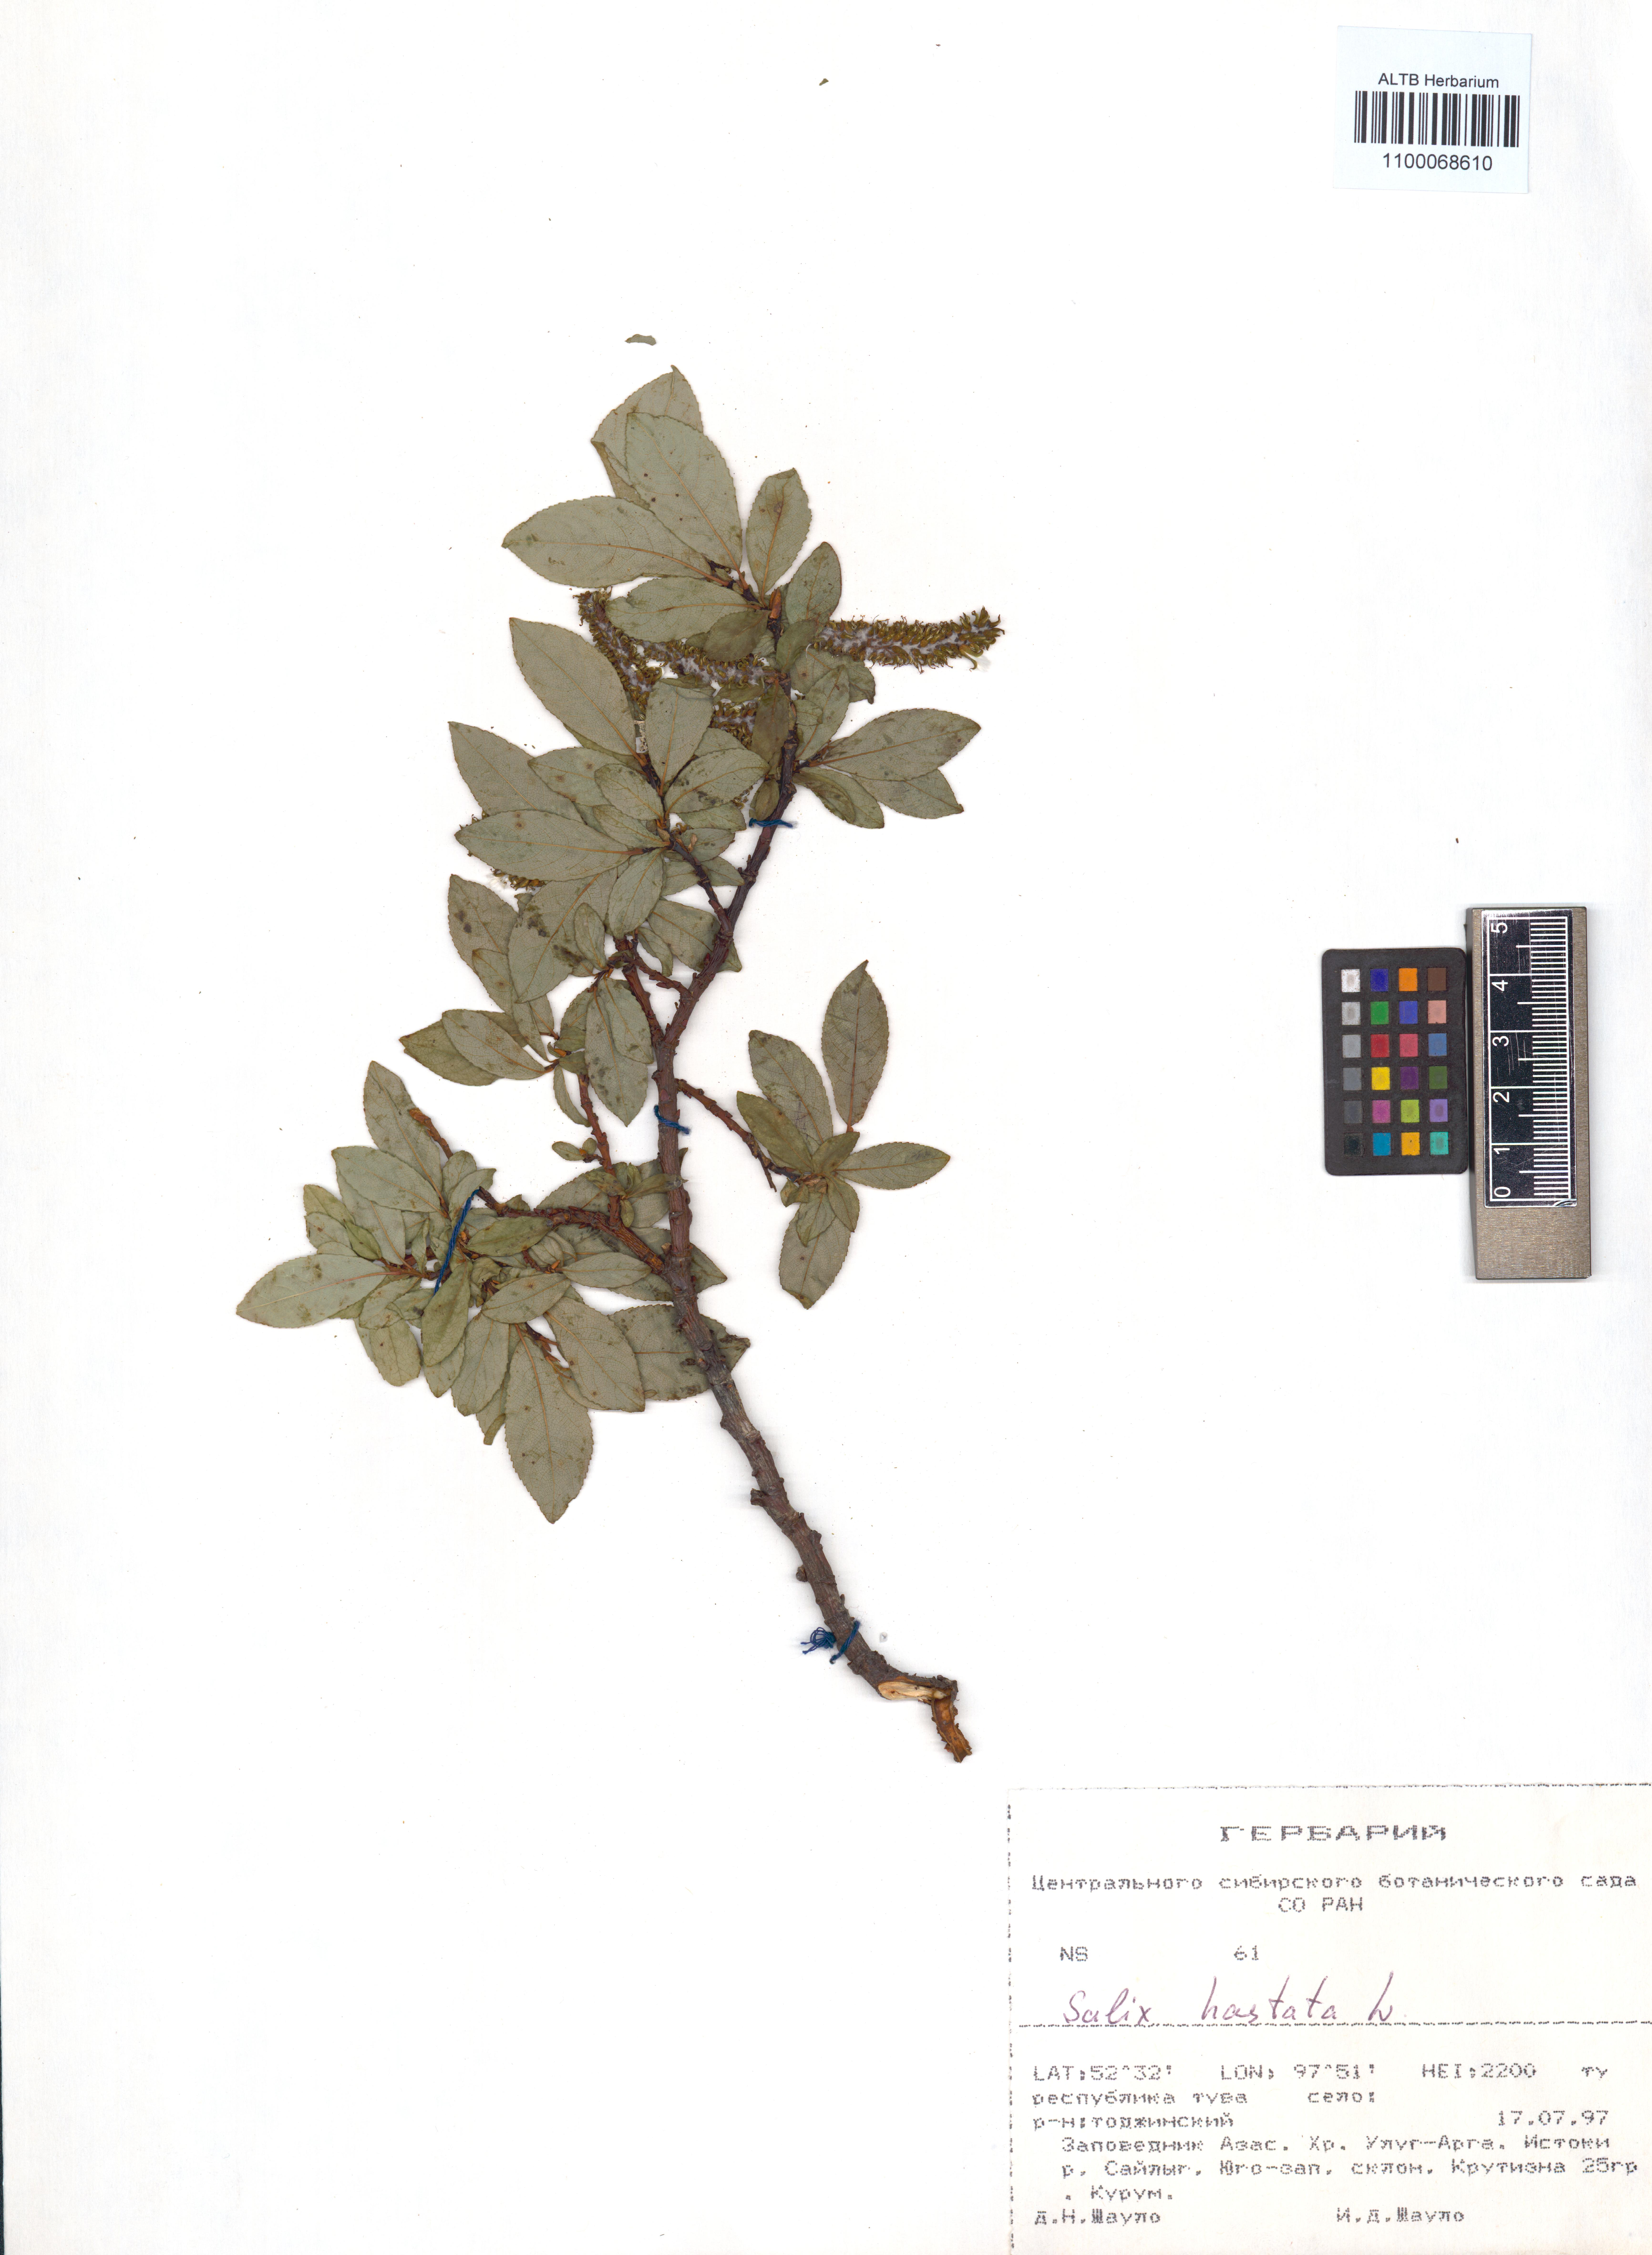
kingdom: Plantae
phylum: Tracheophyta
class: Magnoliopsida
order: Malpighiales
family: Salicaceae
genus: Salix
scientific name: Salix hastata
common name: Halberd willow
